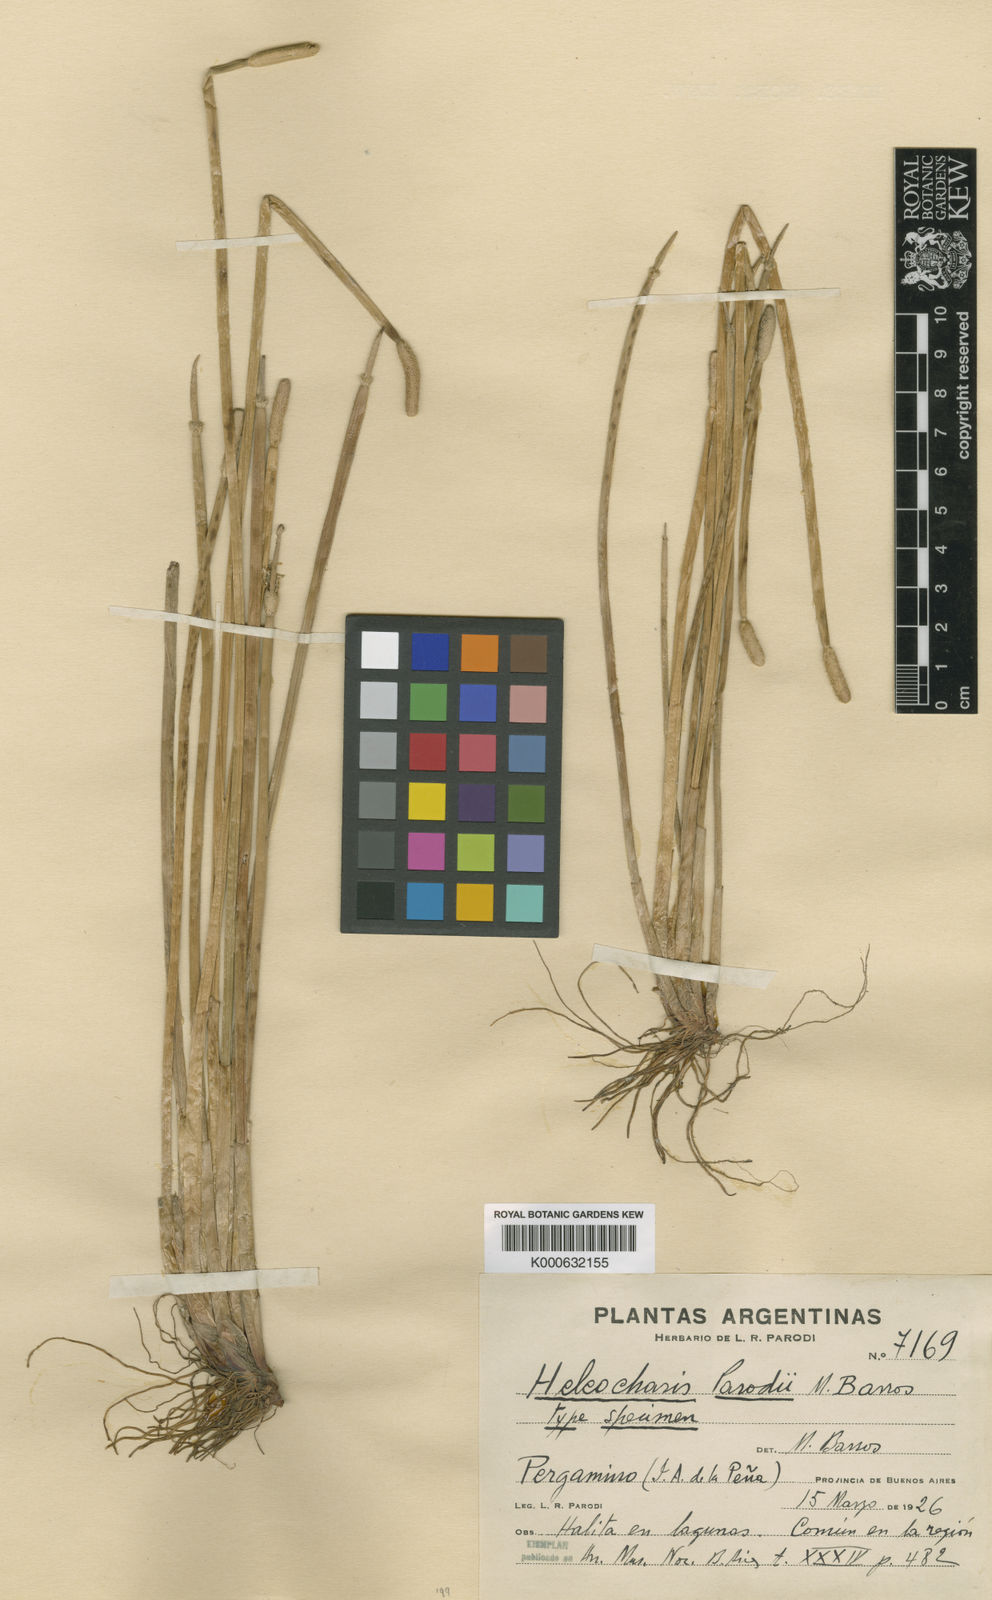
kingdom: Plantae
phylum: Tracheophyta
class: Liliopsida
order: Poales
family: Cyperaceae
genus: Eleocharis
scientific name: Eleocharis parodii
